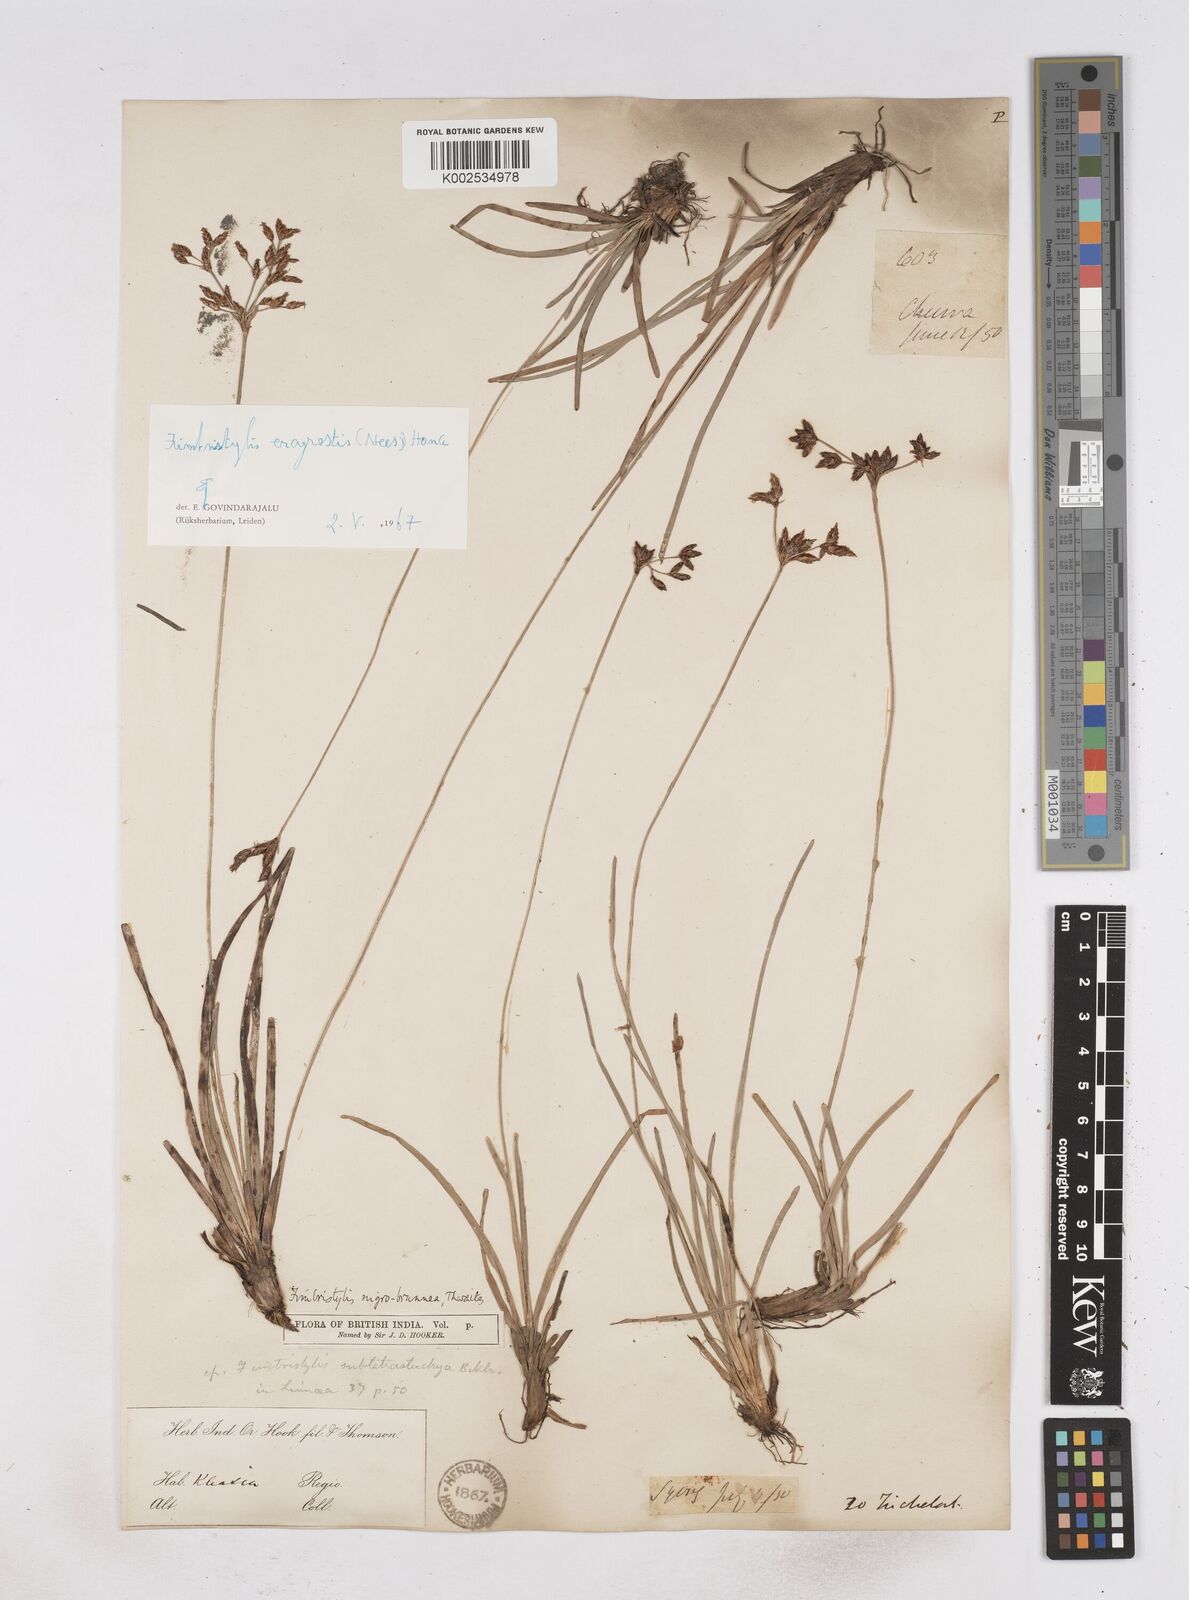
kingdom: Plantae
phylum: Tracheophyta
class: Liliopsida
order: Poales
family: Cyperaceae
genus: Fimbristylis
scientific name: Fimbristylis nigrobrunnea
